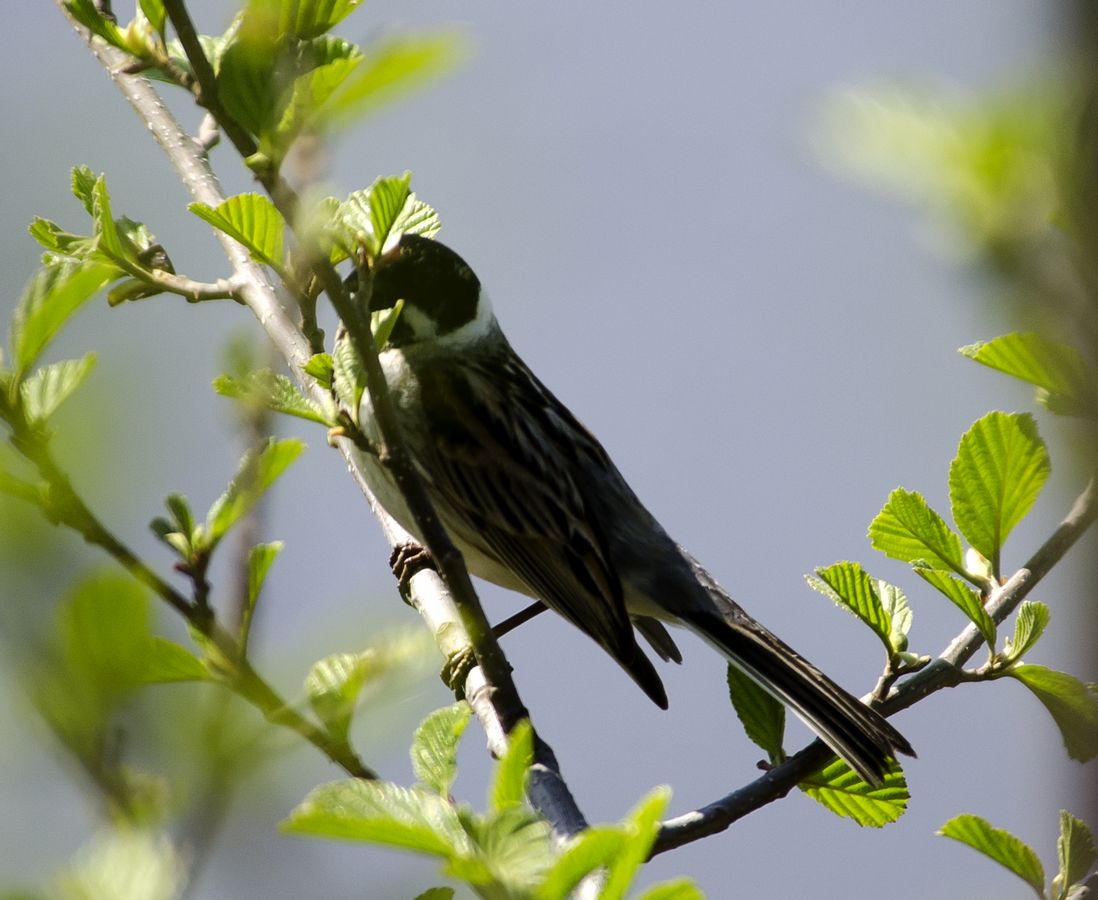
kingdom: Animalia
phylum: Chordata
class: Aves
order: Passeriformes
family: Emberizidae
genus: Emberiza
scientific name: Emberiza schoeniclus
